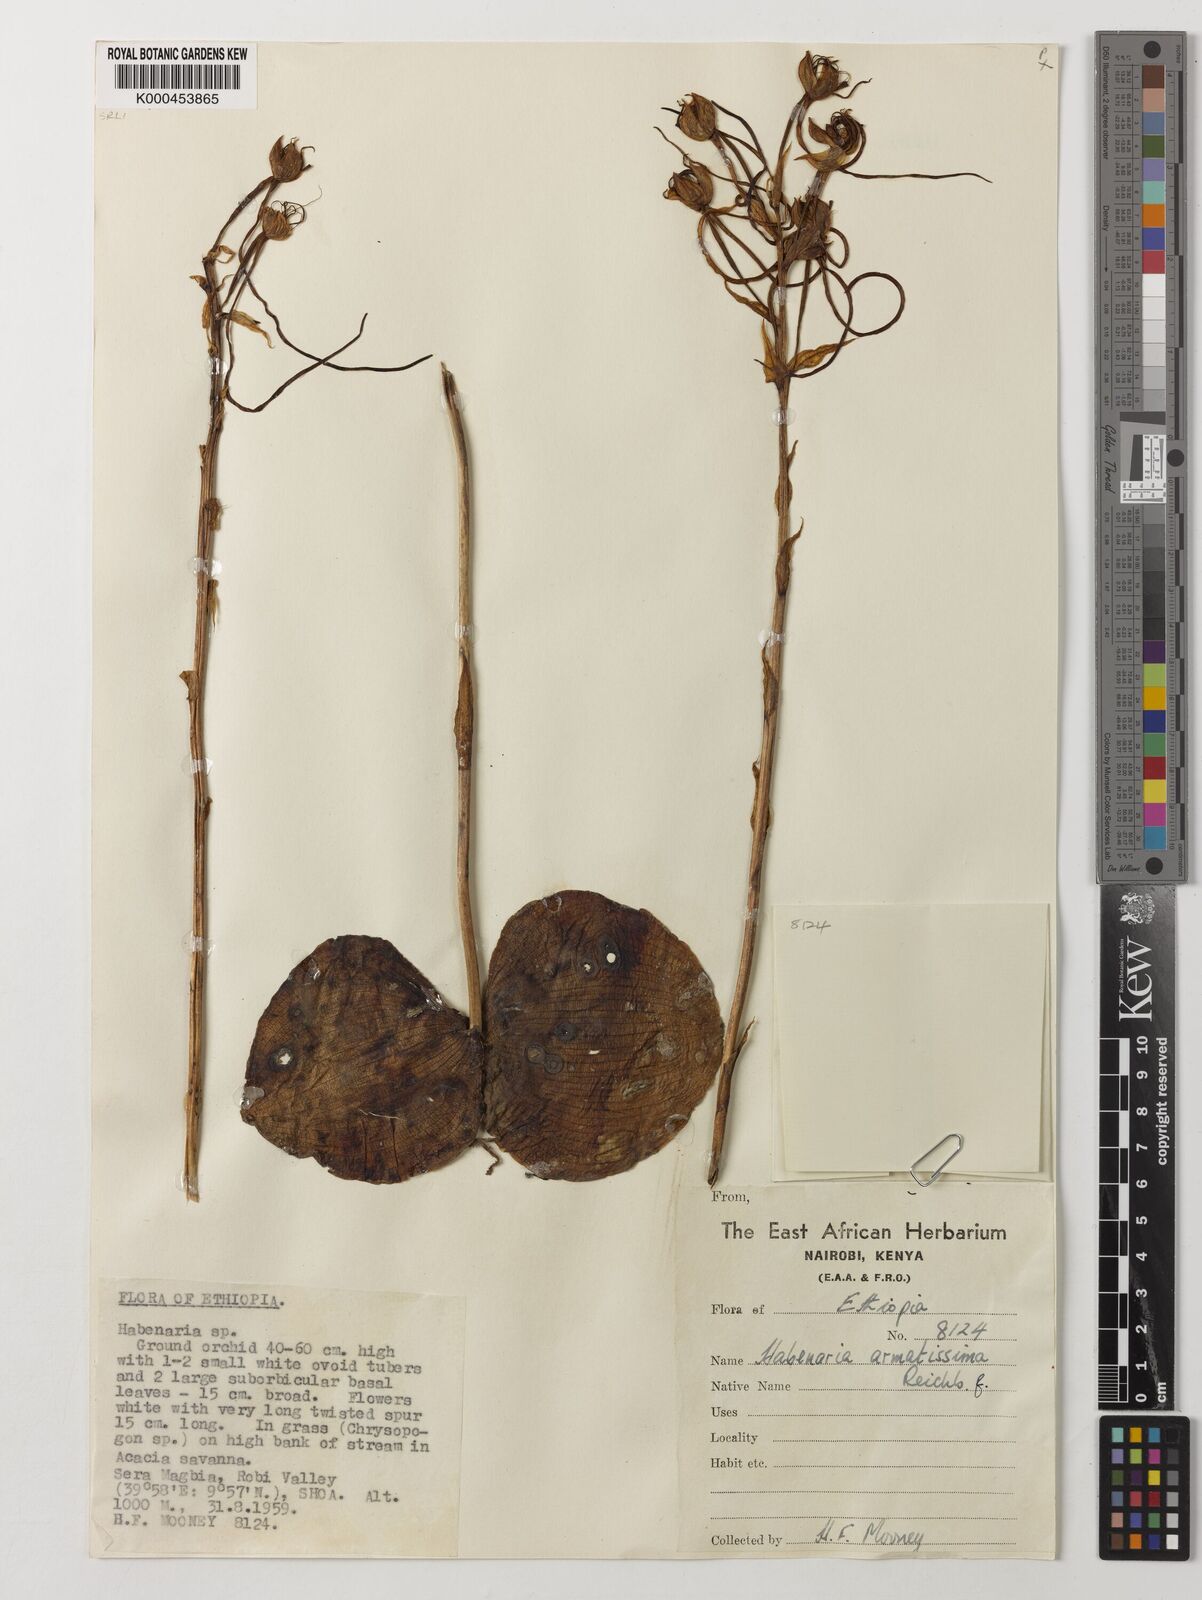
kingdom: Plantae
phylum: Tracheophyta
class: Liliopsida
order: Asparagales
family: Orchidaceae
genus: Habenaria
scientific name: Habenaria armatissima
